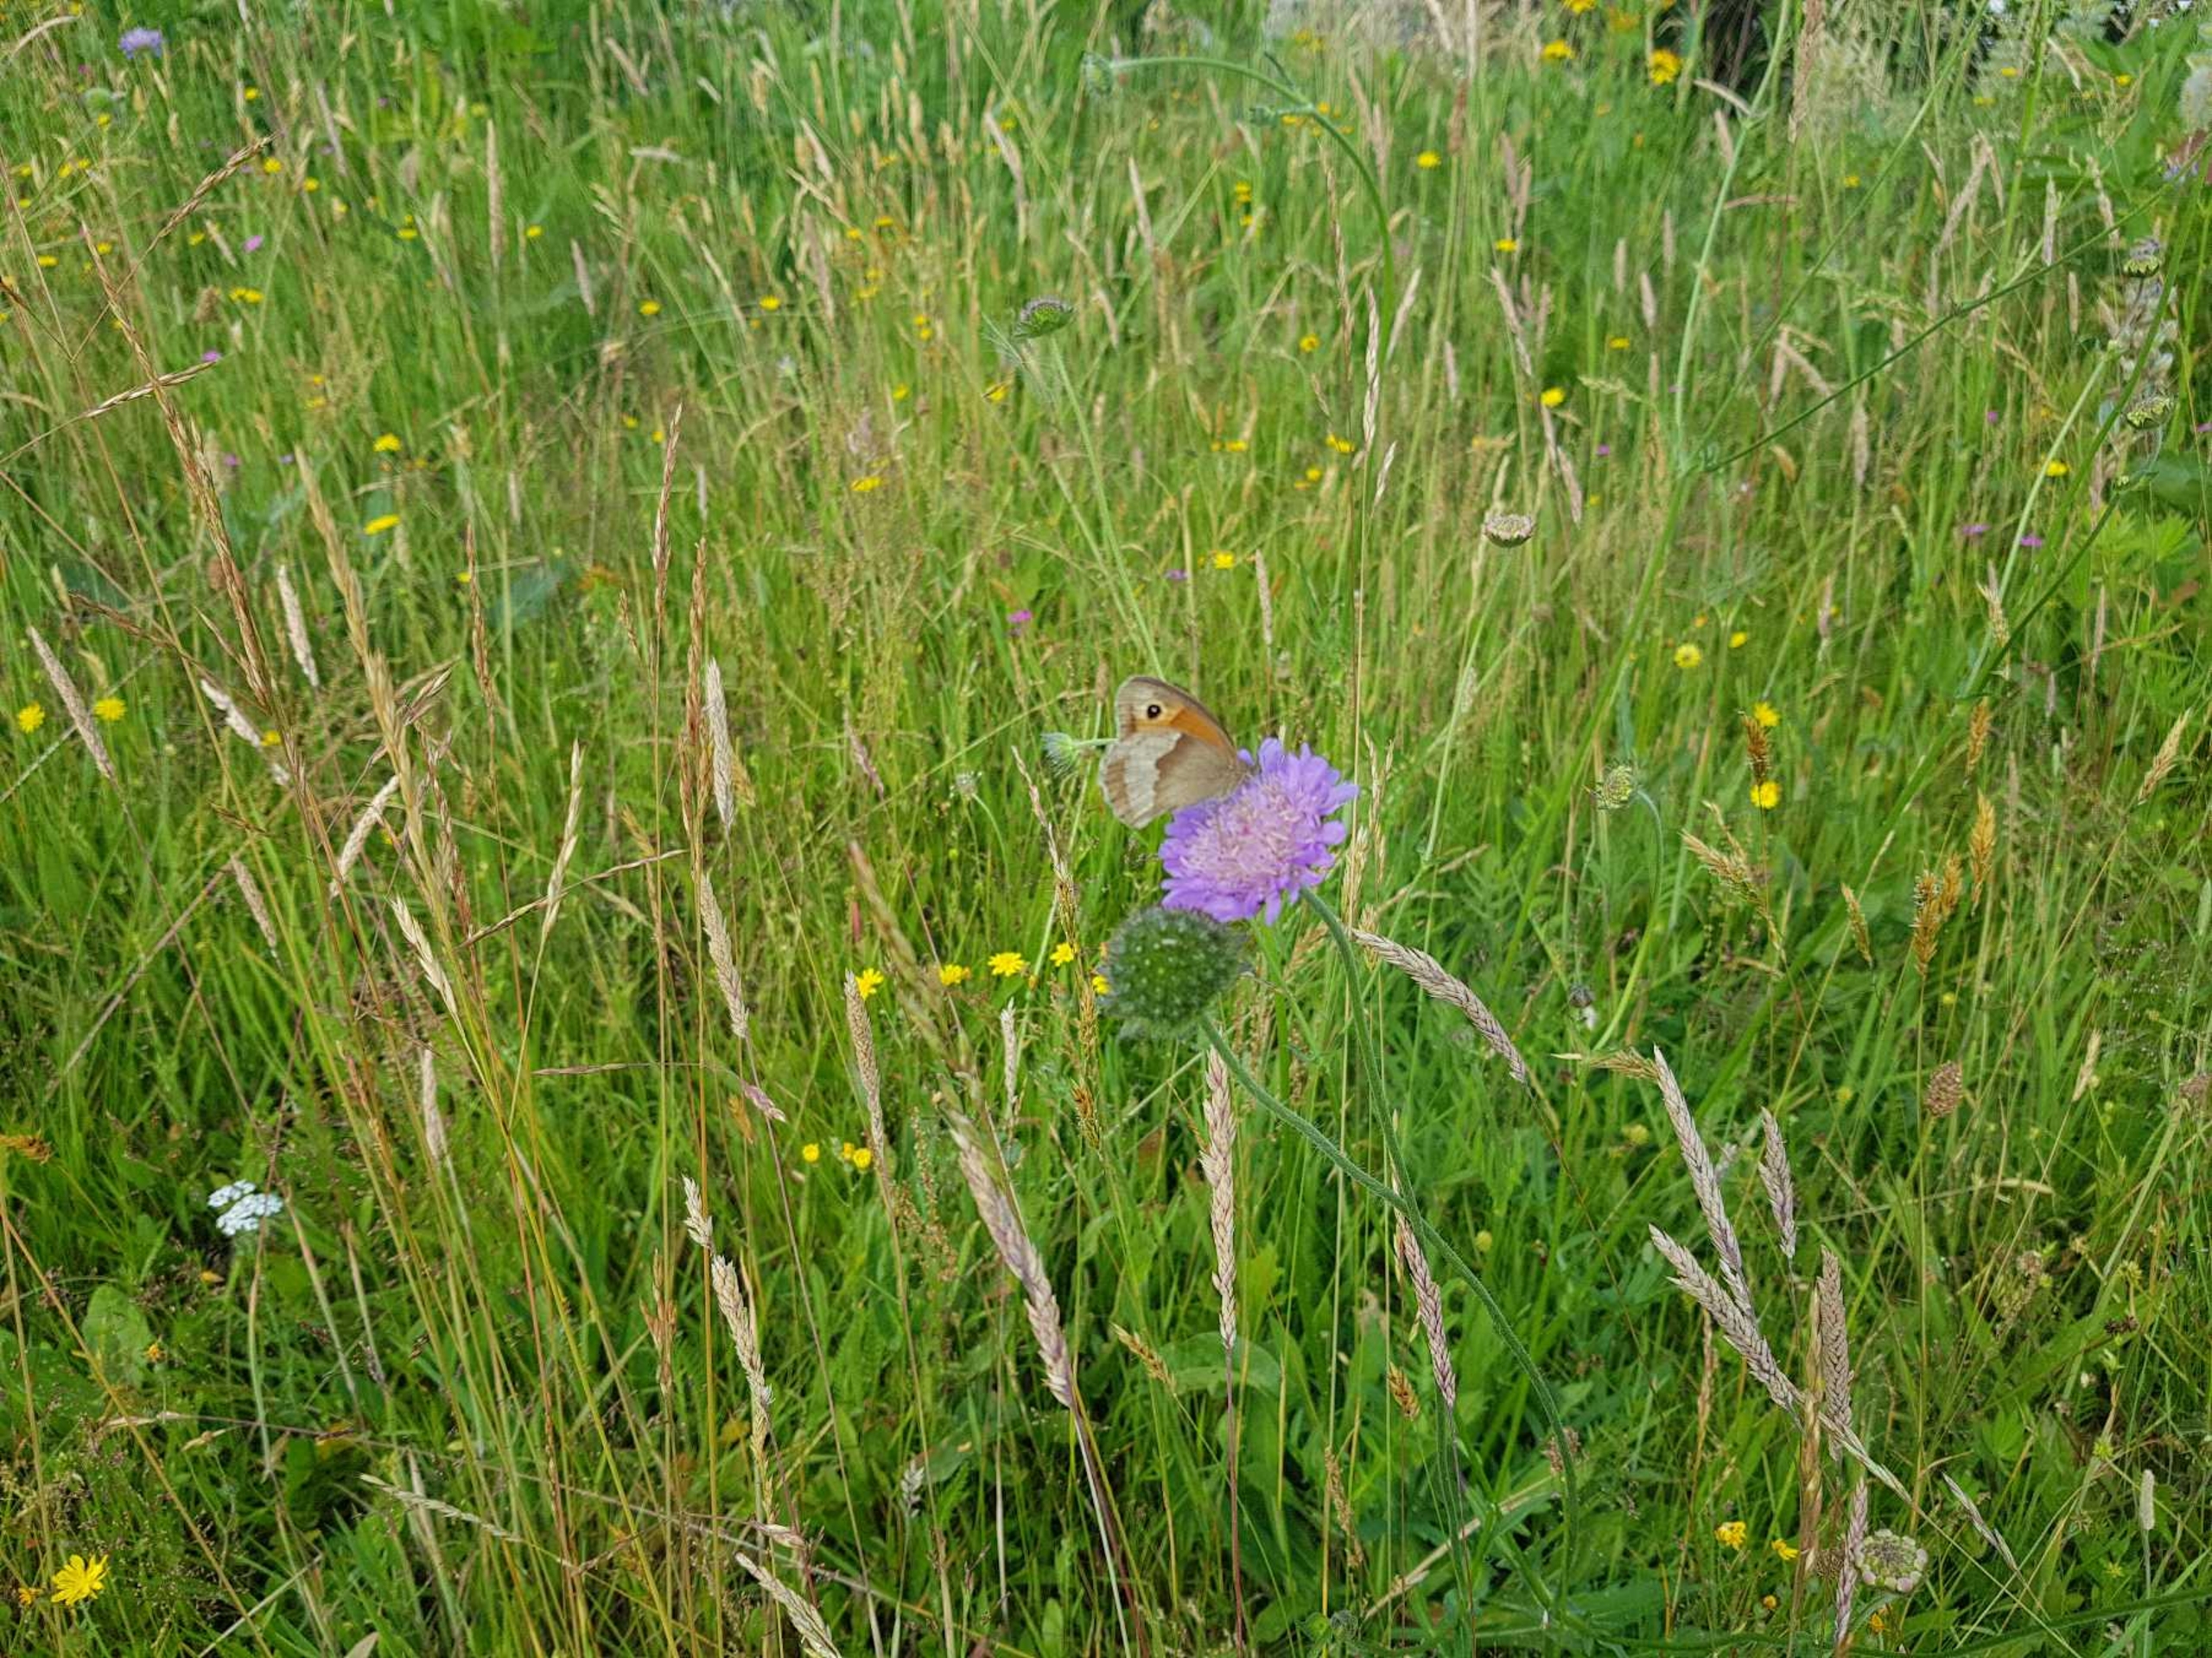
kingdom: Animalia
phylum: Arthropoda
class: Insecta
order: Lepidoptera
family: Nymphalidae
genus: Maniola
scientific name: Maniola jurtina
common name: Græsrandøje
